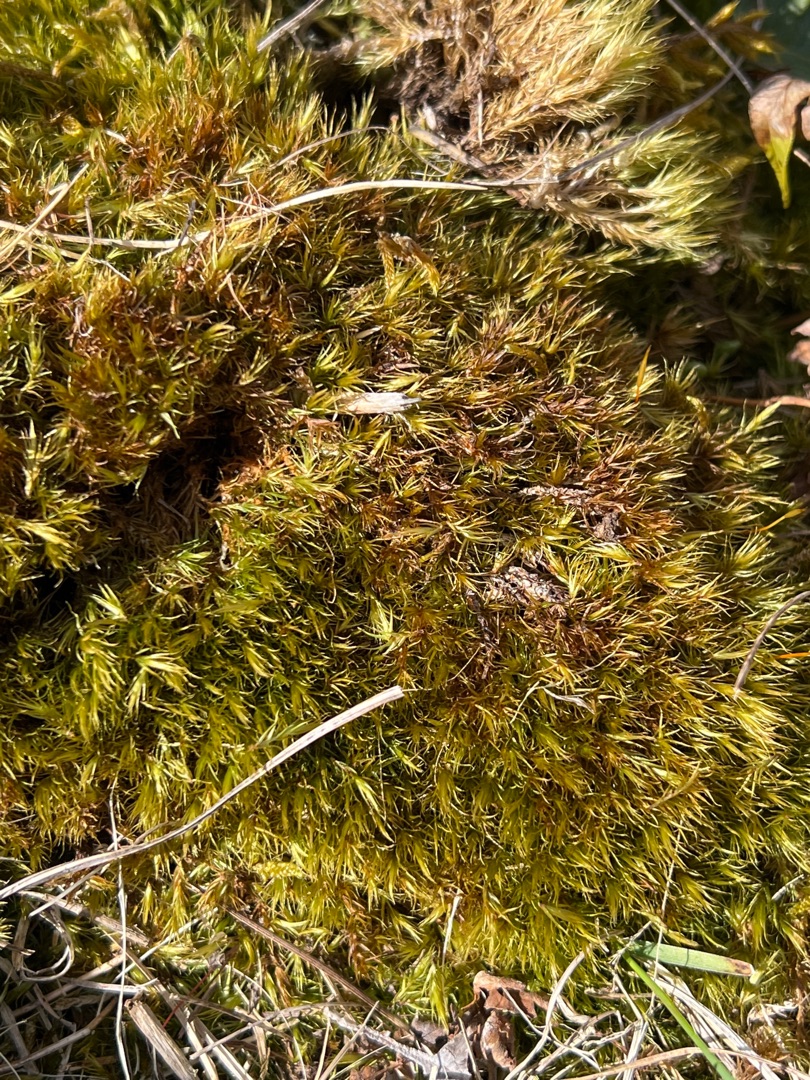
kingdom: Plantae
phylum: Bryophyta
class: Bryopsida
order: Dicranales
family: Dicranaceae
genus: Dicranum
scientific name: Dicranum scoparium
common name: Almindelig kløvtand
